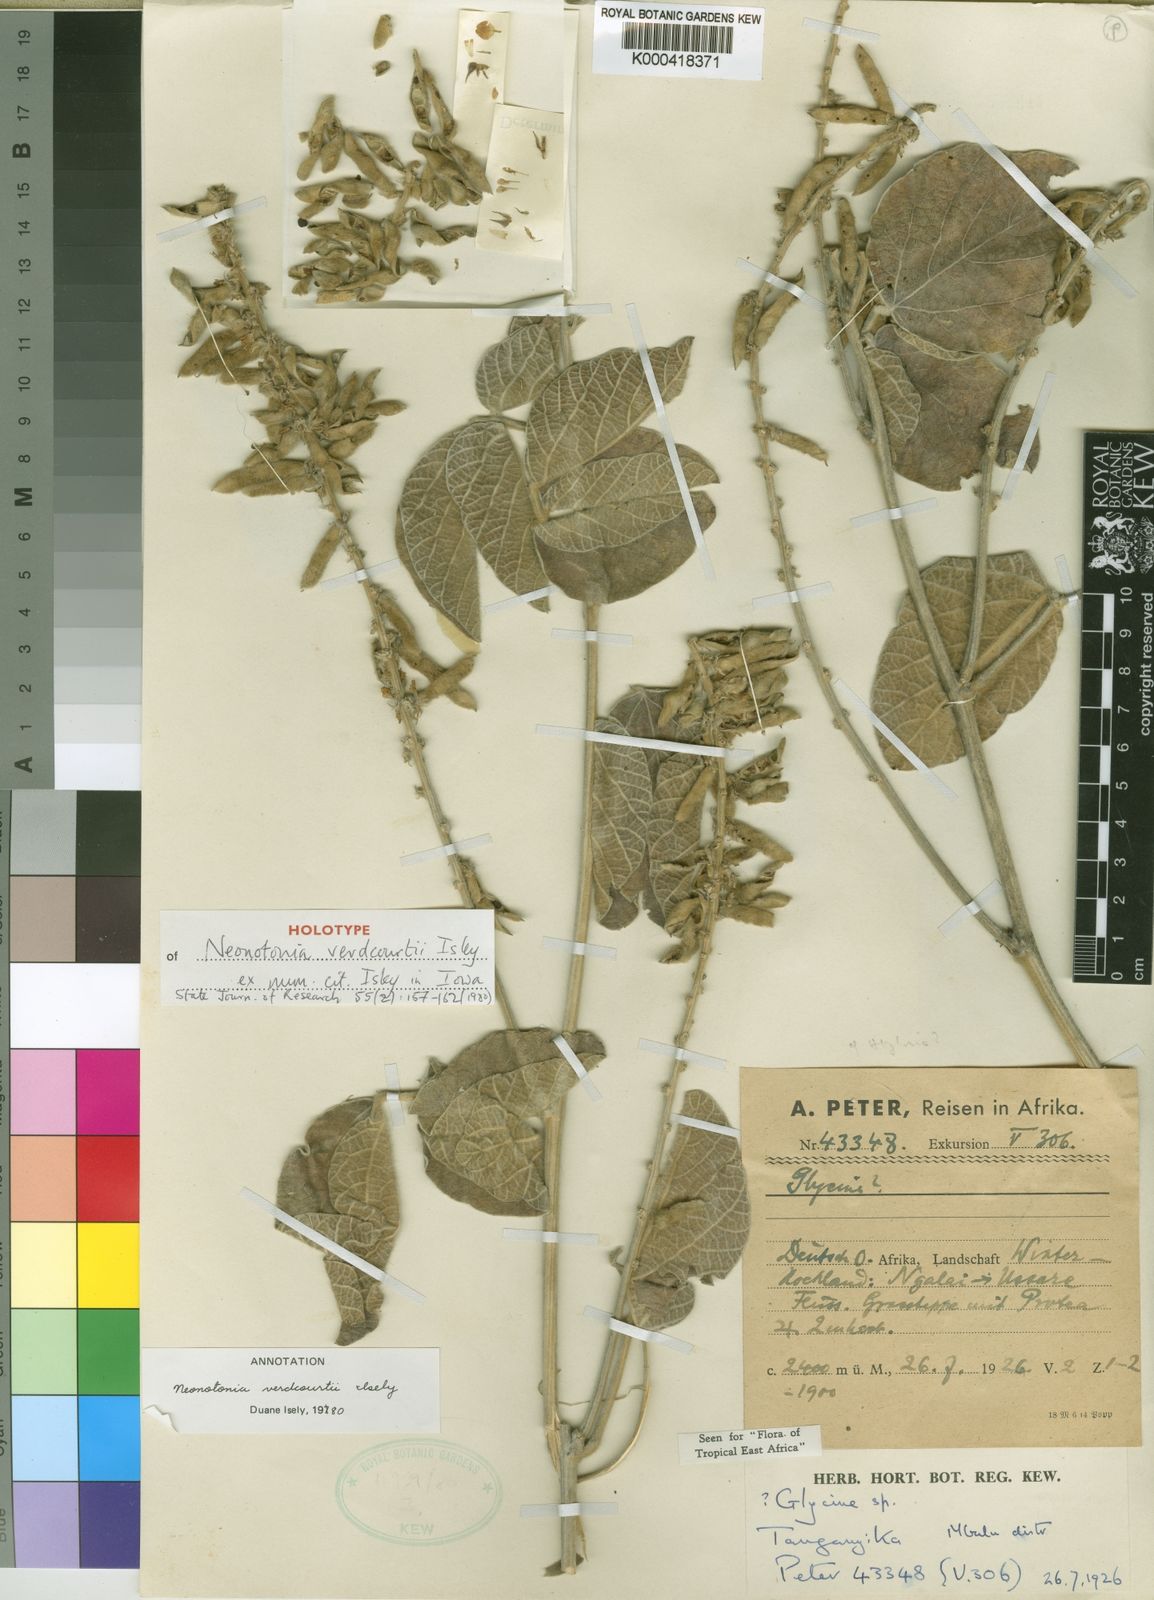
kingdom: Plantae
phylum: Tracheophyta
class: Magnoliopsida
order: Fabales
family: Fabaceae
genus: Neonotonia
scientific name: Neonotonia
